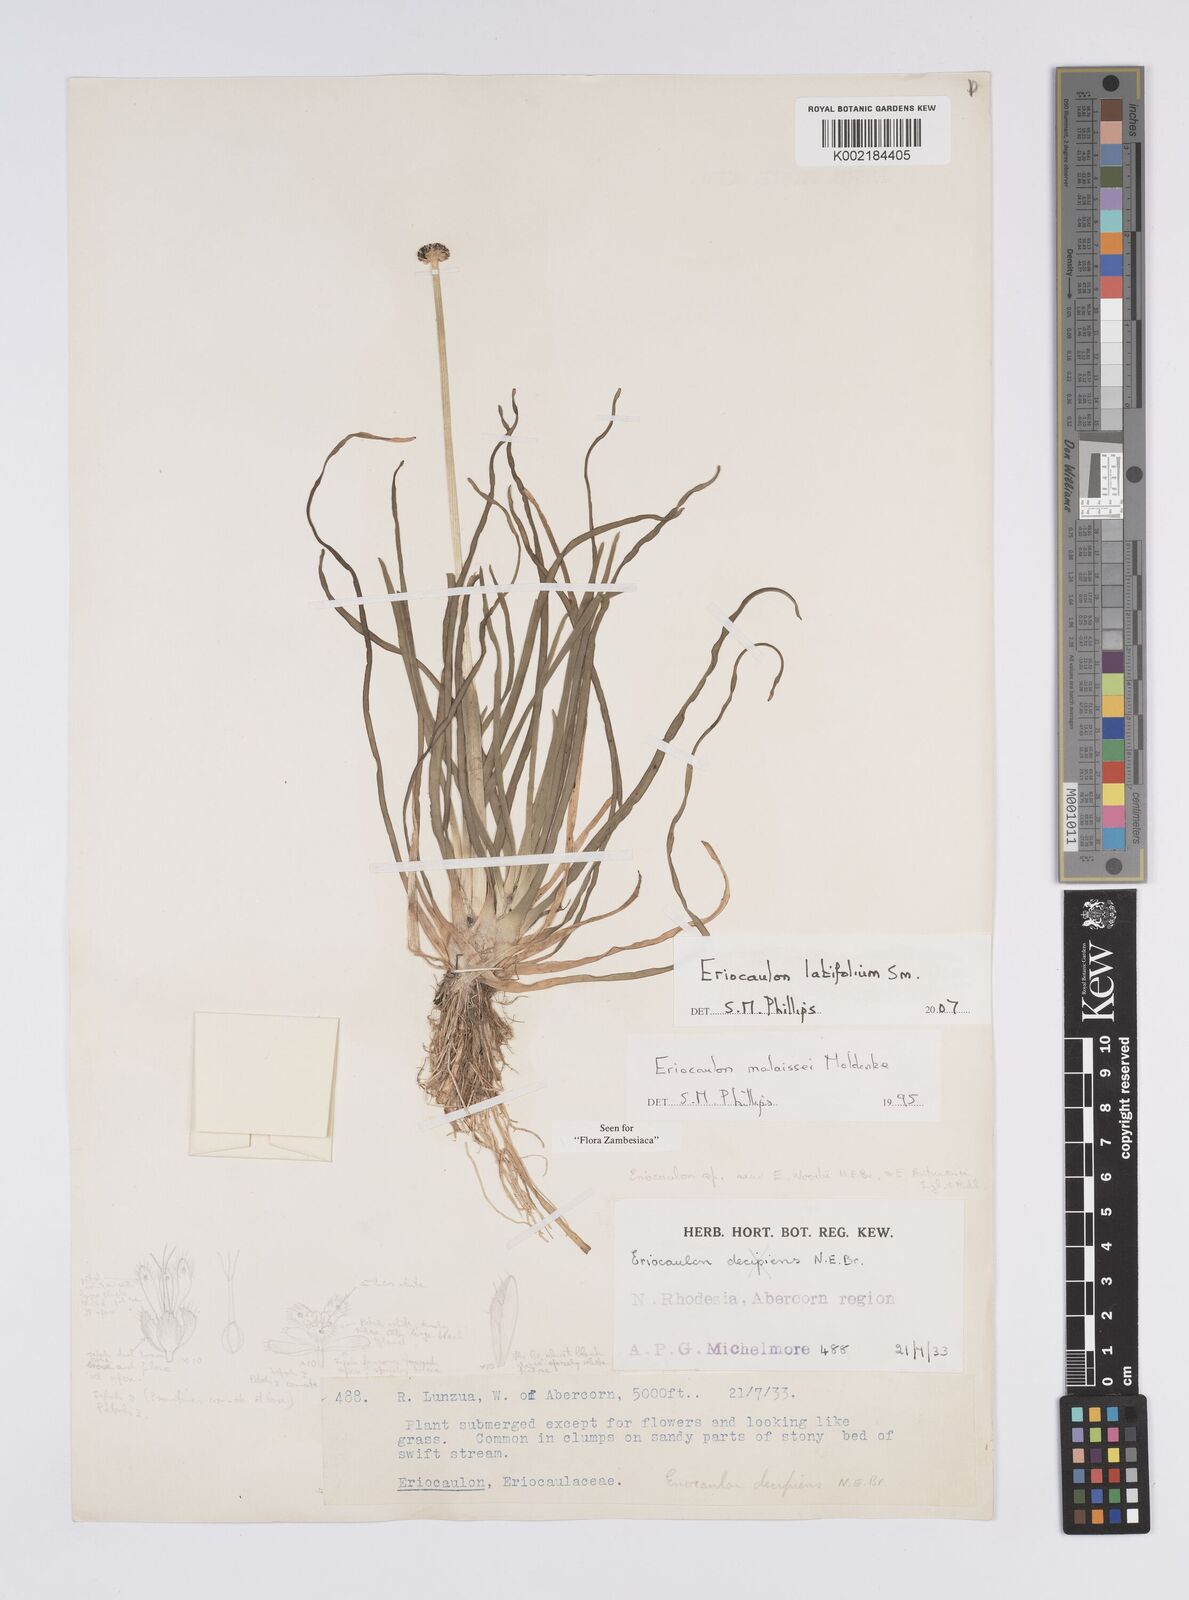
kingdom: Plantae
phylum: Tracheophyta
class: Liliopsida
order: Poales
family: Eriocaulaceae
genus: Eriocaulon
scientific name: Eriocaulon latifolium
